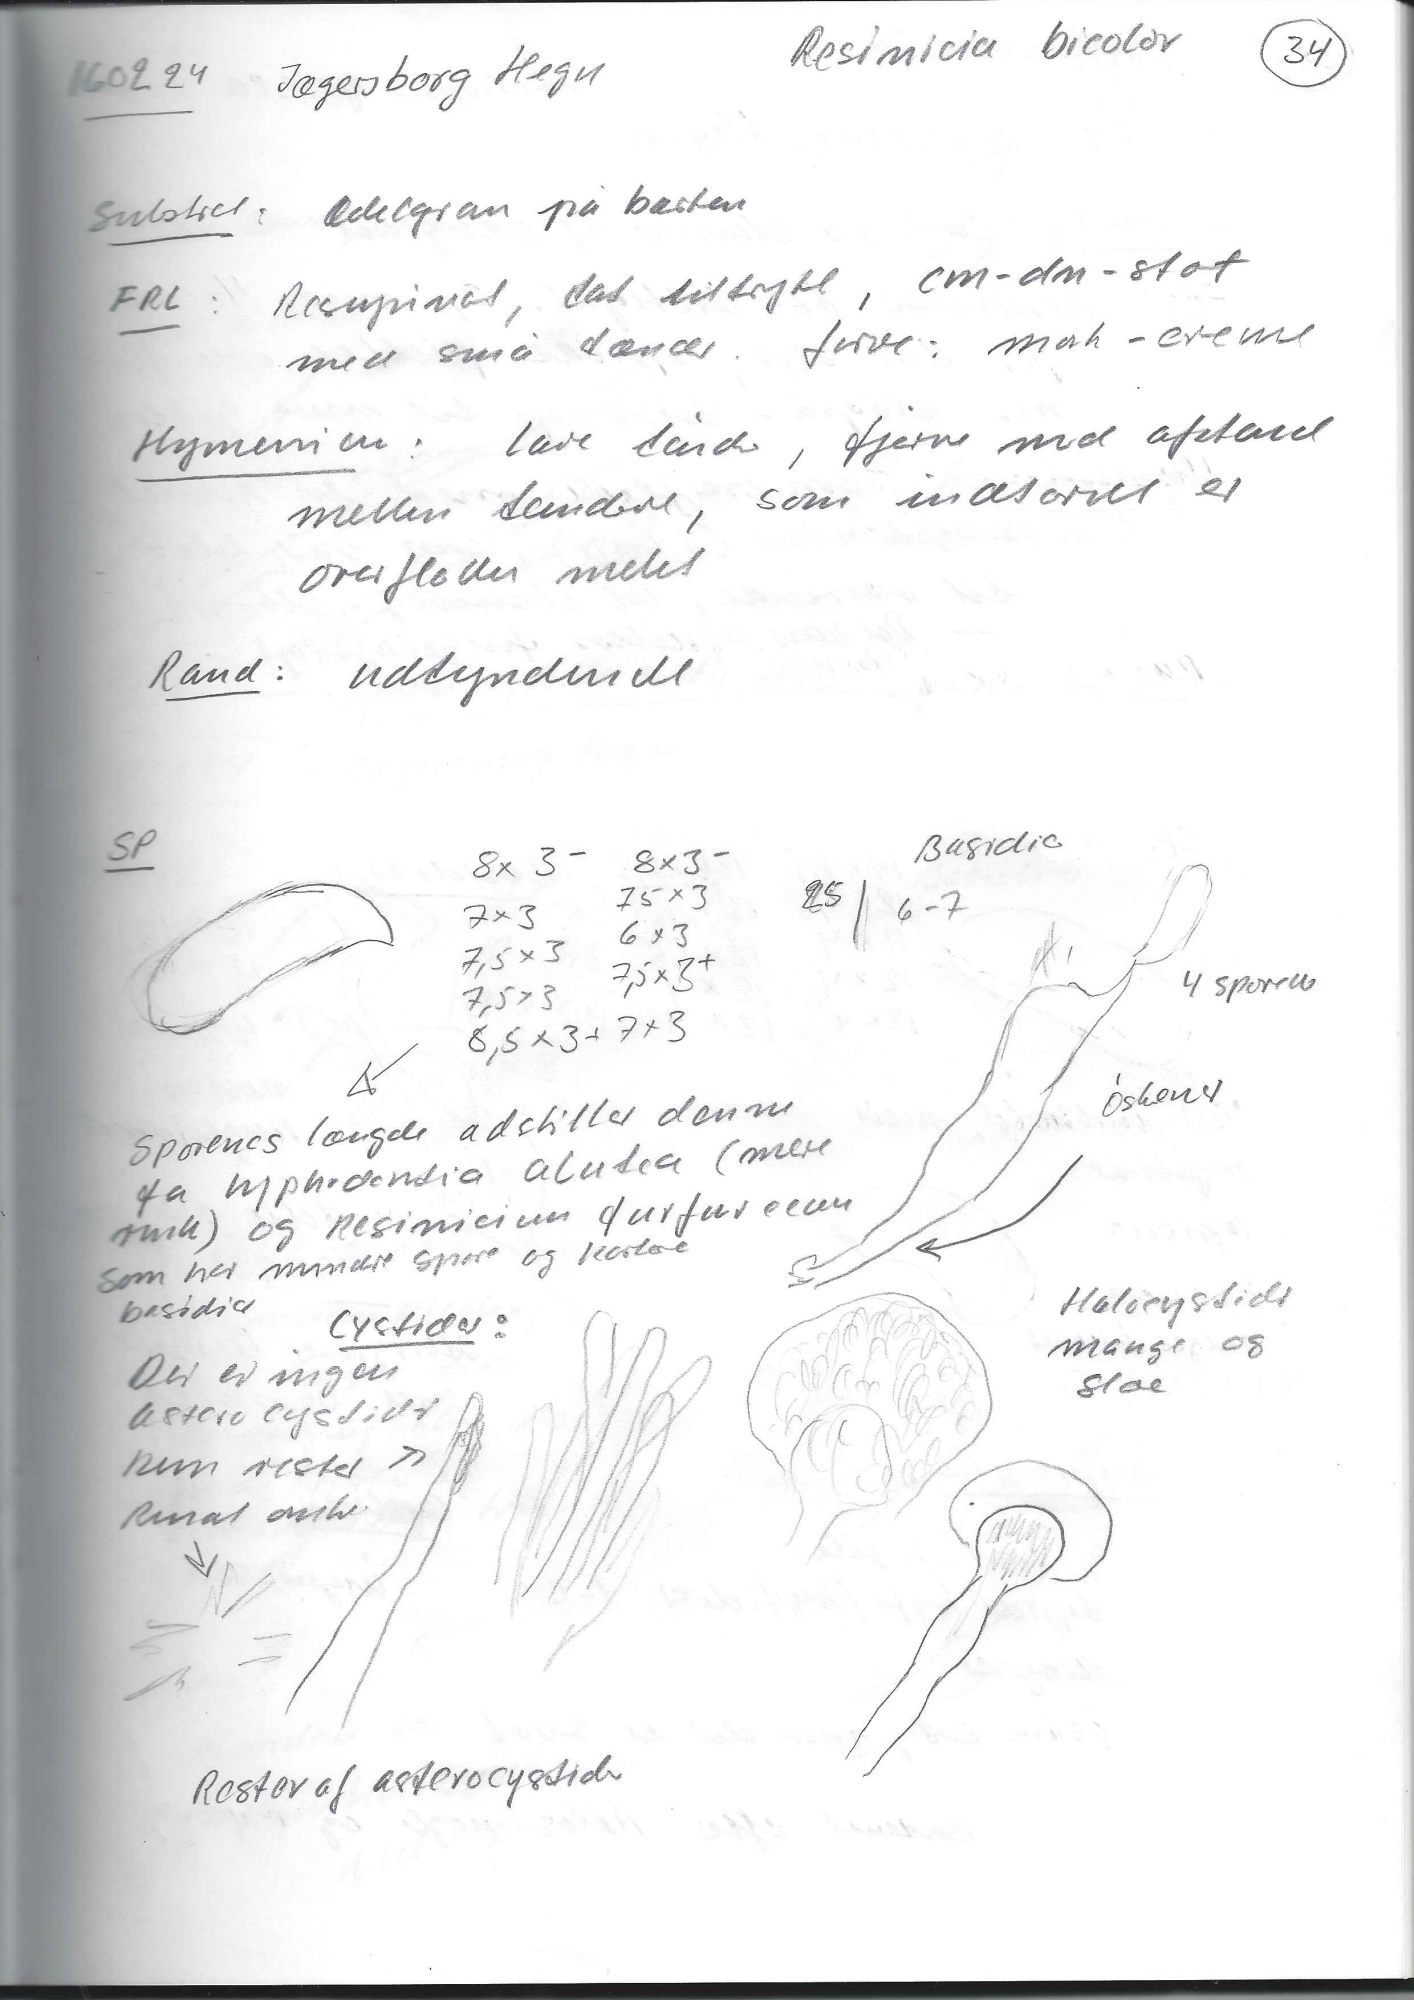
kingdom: Fungi
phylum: Basidiomycota
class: Agaricomycetes
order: Hymenochaetales
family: Rickenellaceae
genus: Resinicium
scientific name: Resinicium bicolor
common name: almindelig vokstand
